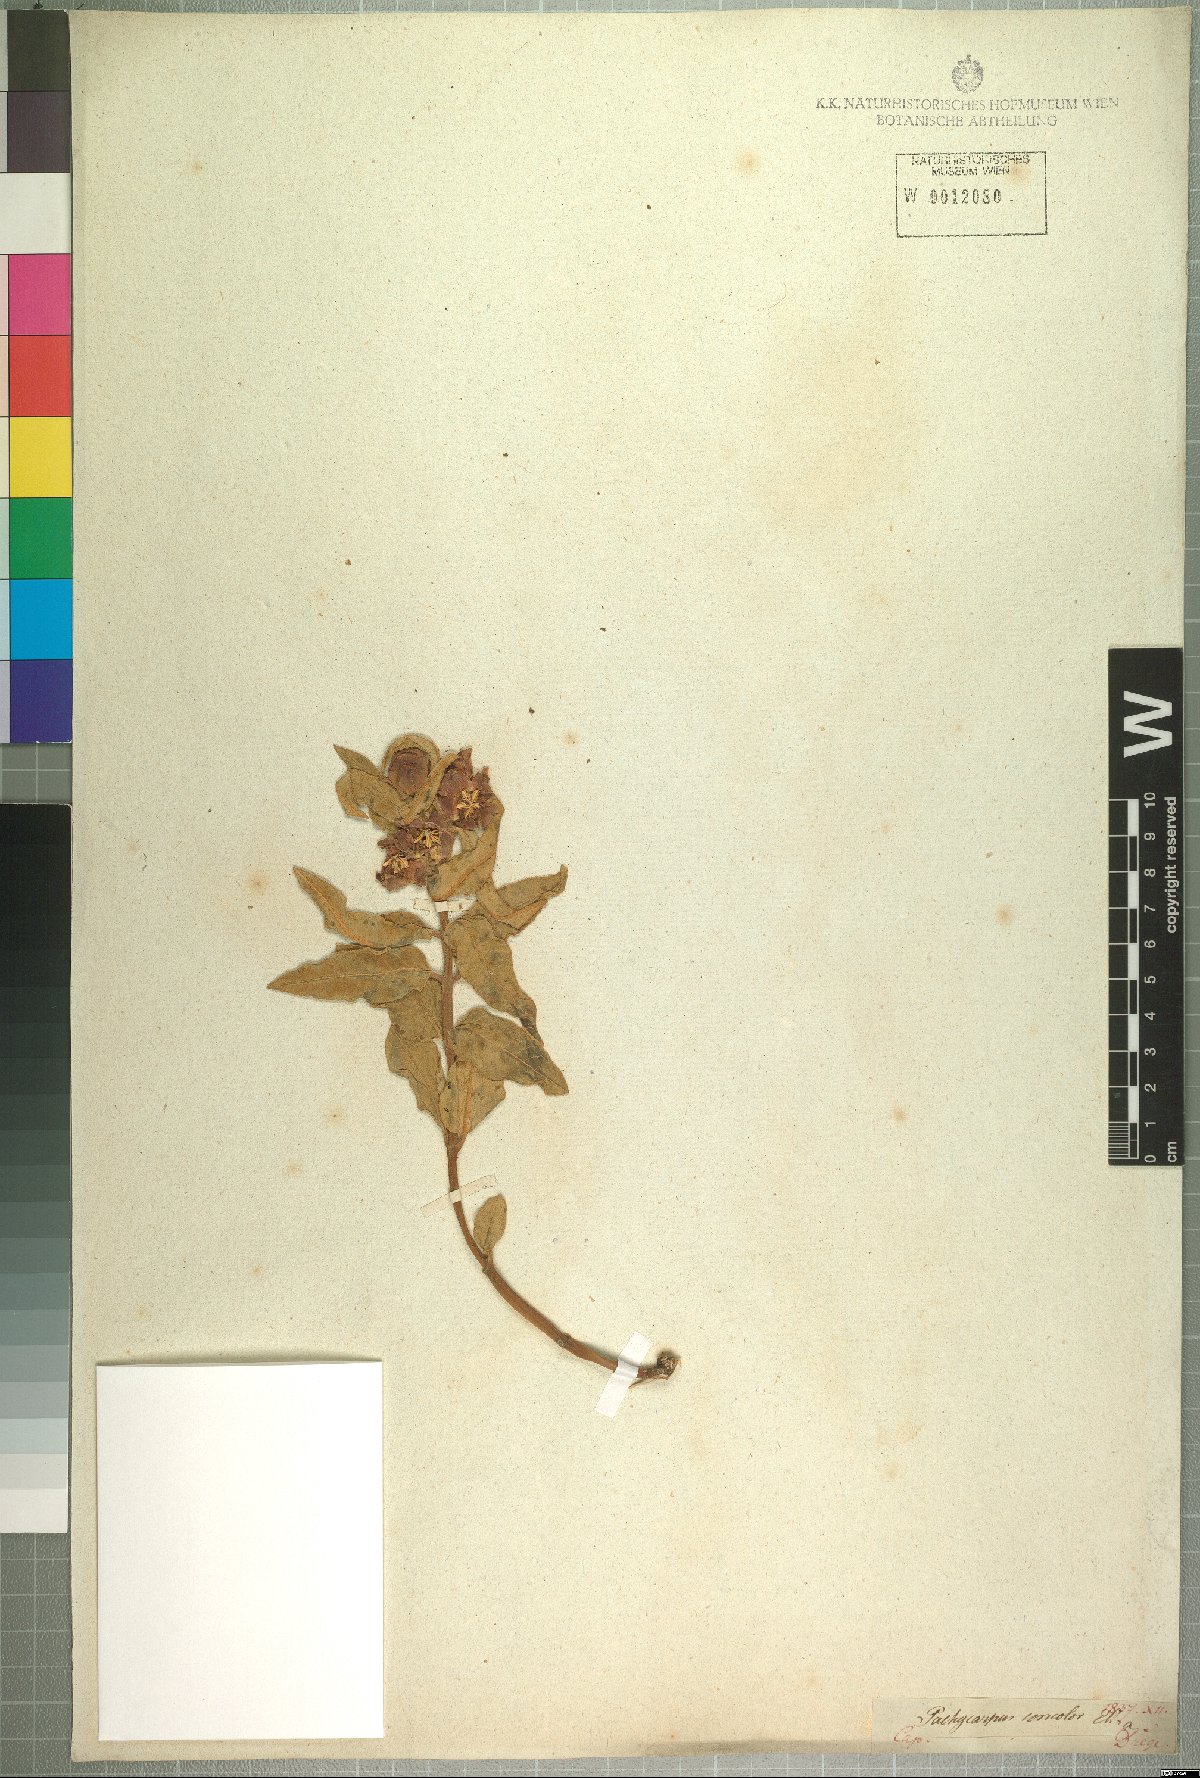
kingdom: Plantae
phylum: Tracheophyta
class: Magnoliopsida
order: Gentianales
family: Apocynaceae
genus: Pachycarpus
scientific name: Pachycarpus concolor
